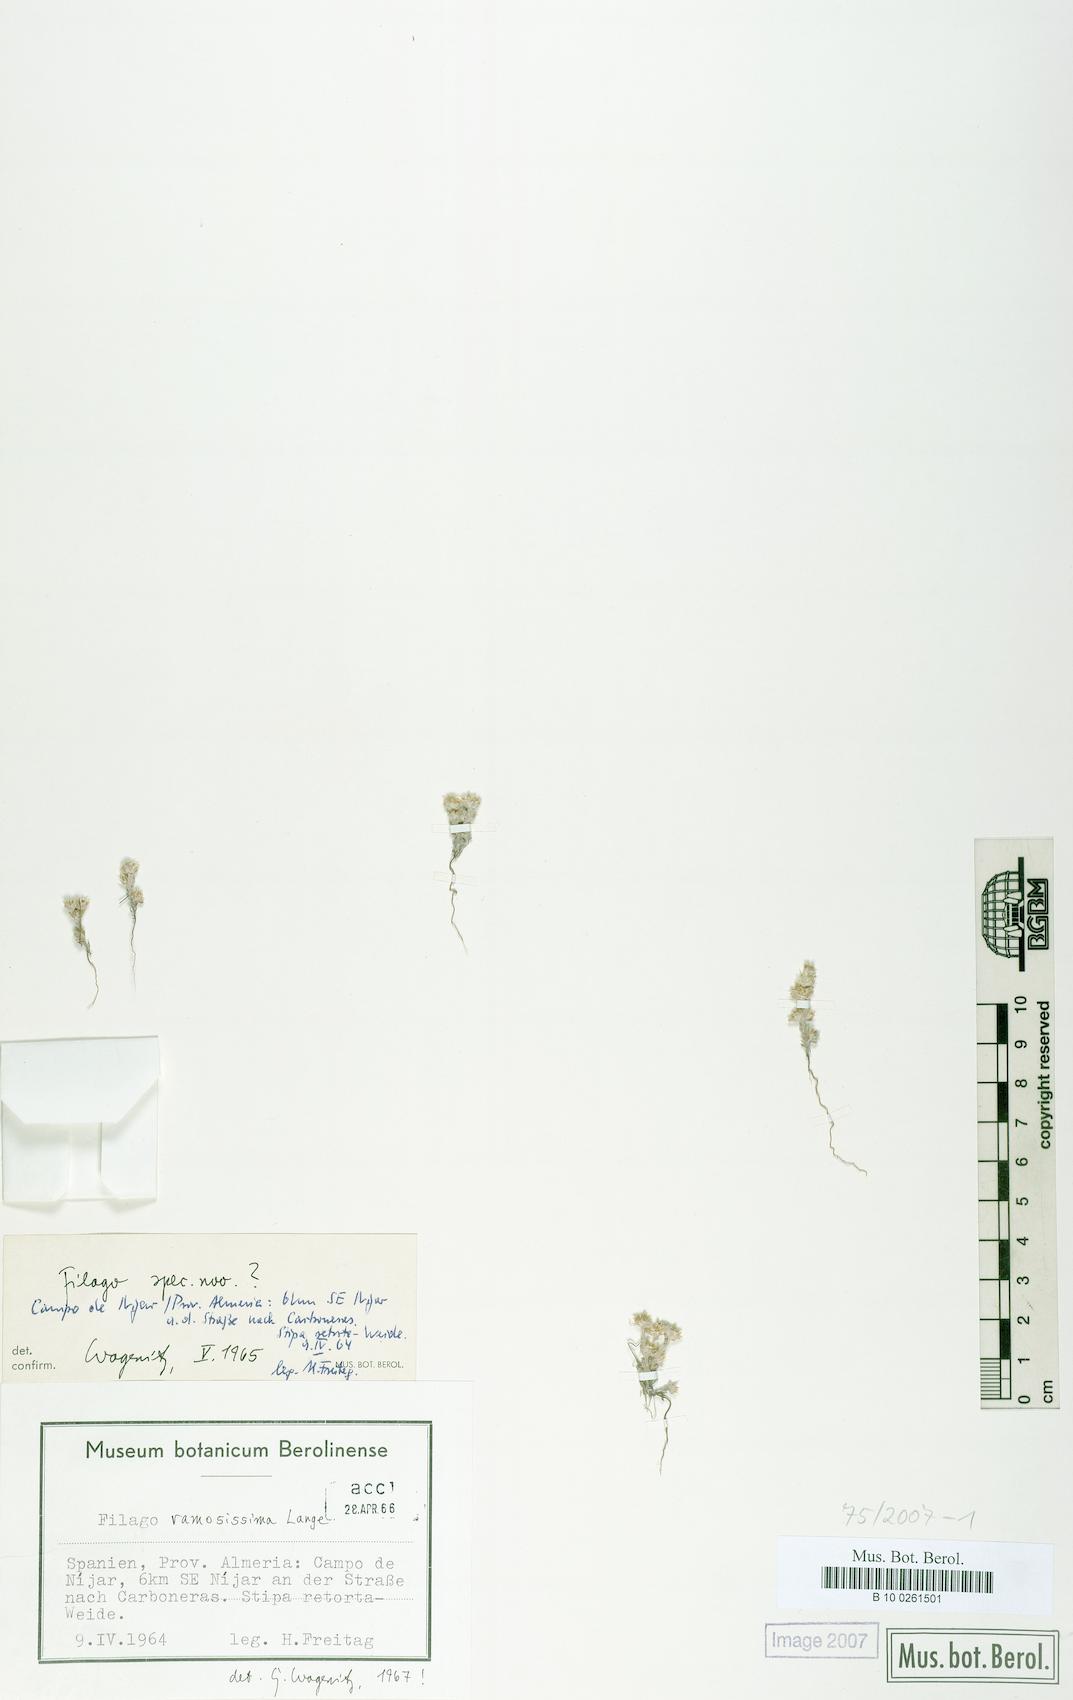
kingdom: Plantae
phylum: Tracheophyta
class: Magnoliopsida
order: Asterales
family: Asteraceae
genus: Filago
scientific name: Filago ramosissima
